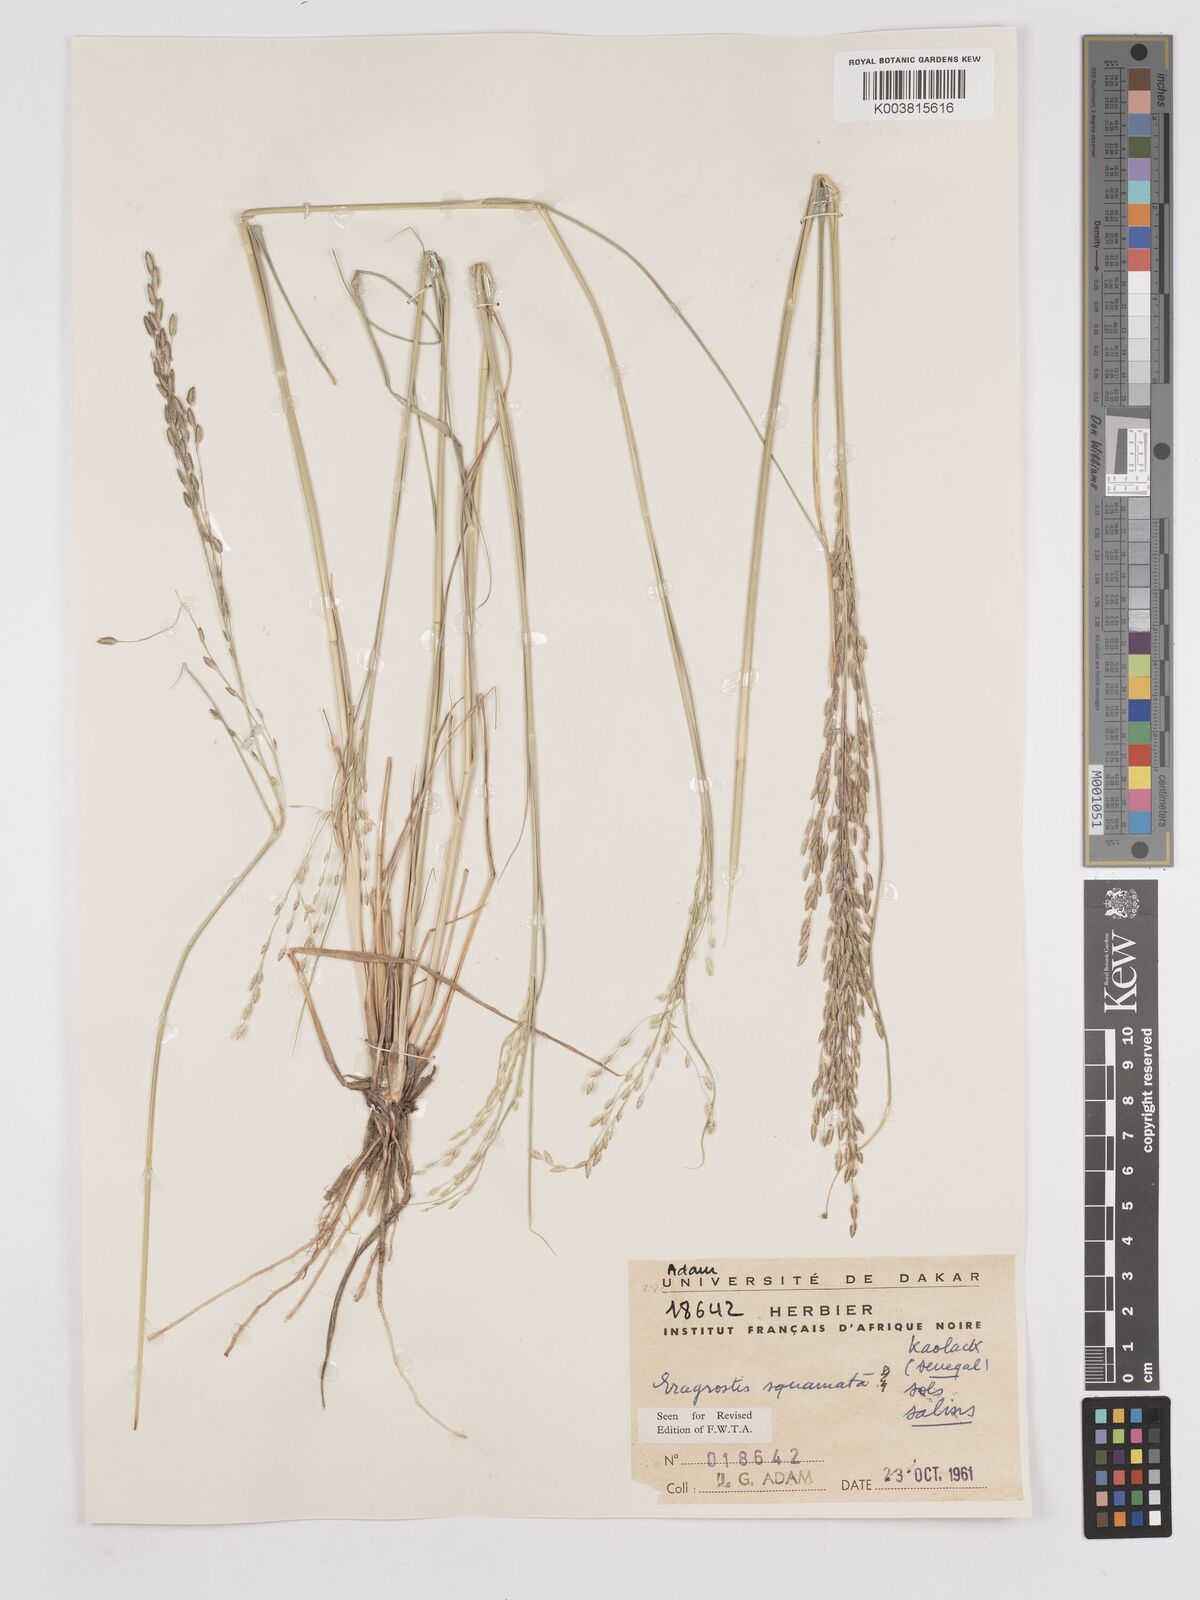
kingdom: Plantae
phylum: Tracheophyta
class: Liliopsida
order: Poales
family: Poaceae
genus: Eragrostis
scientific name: Eragrostis squamata
